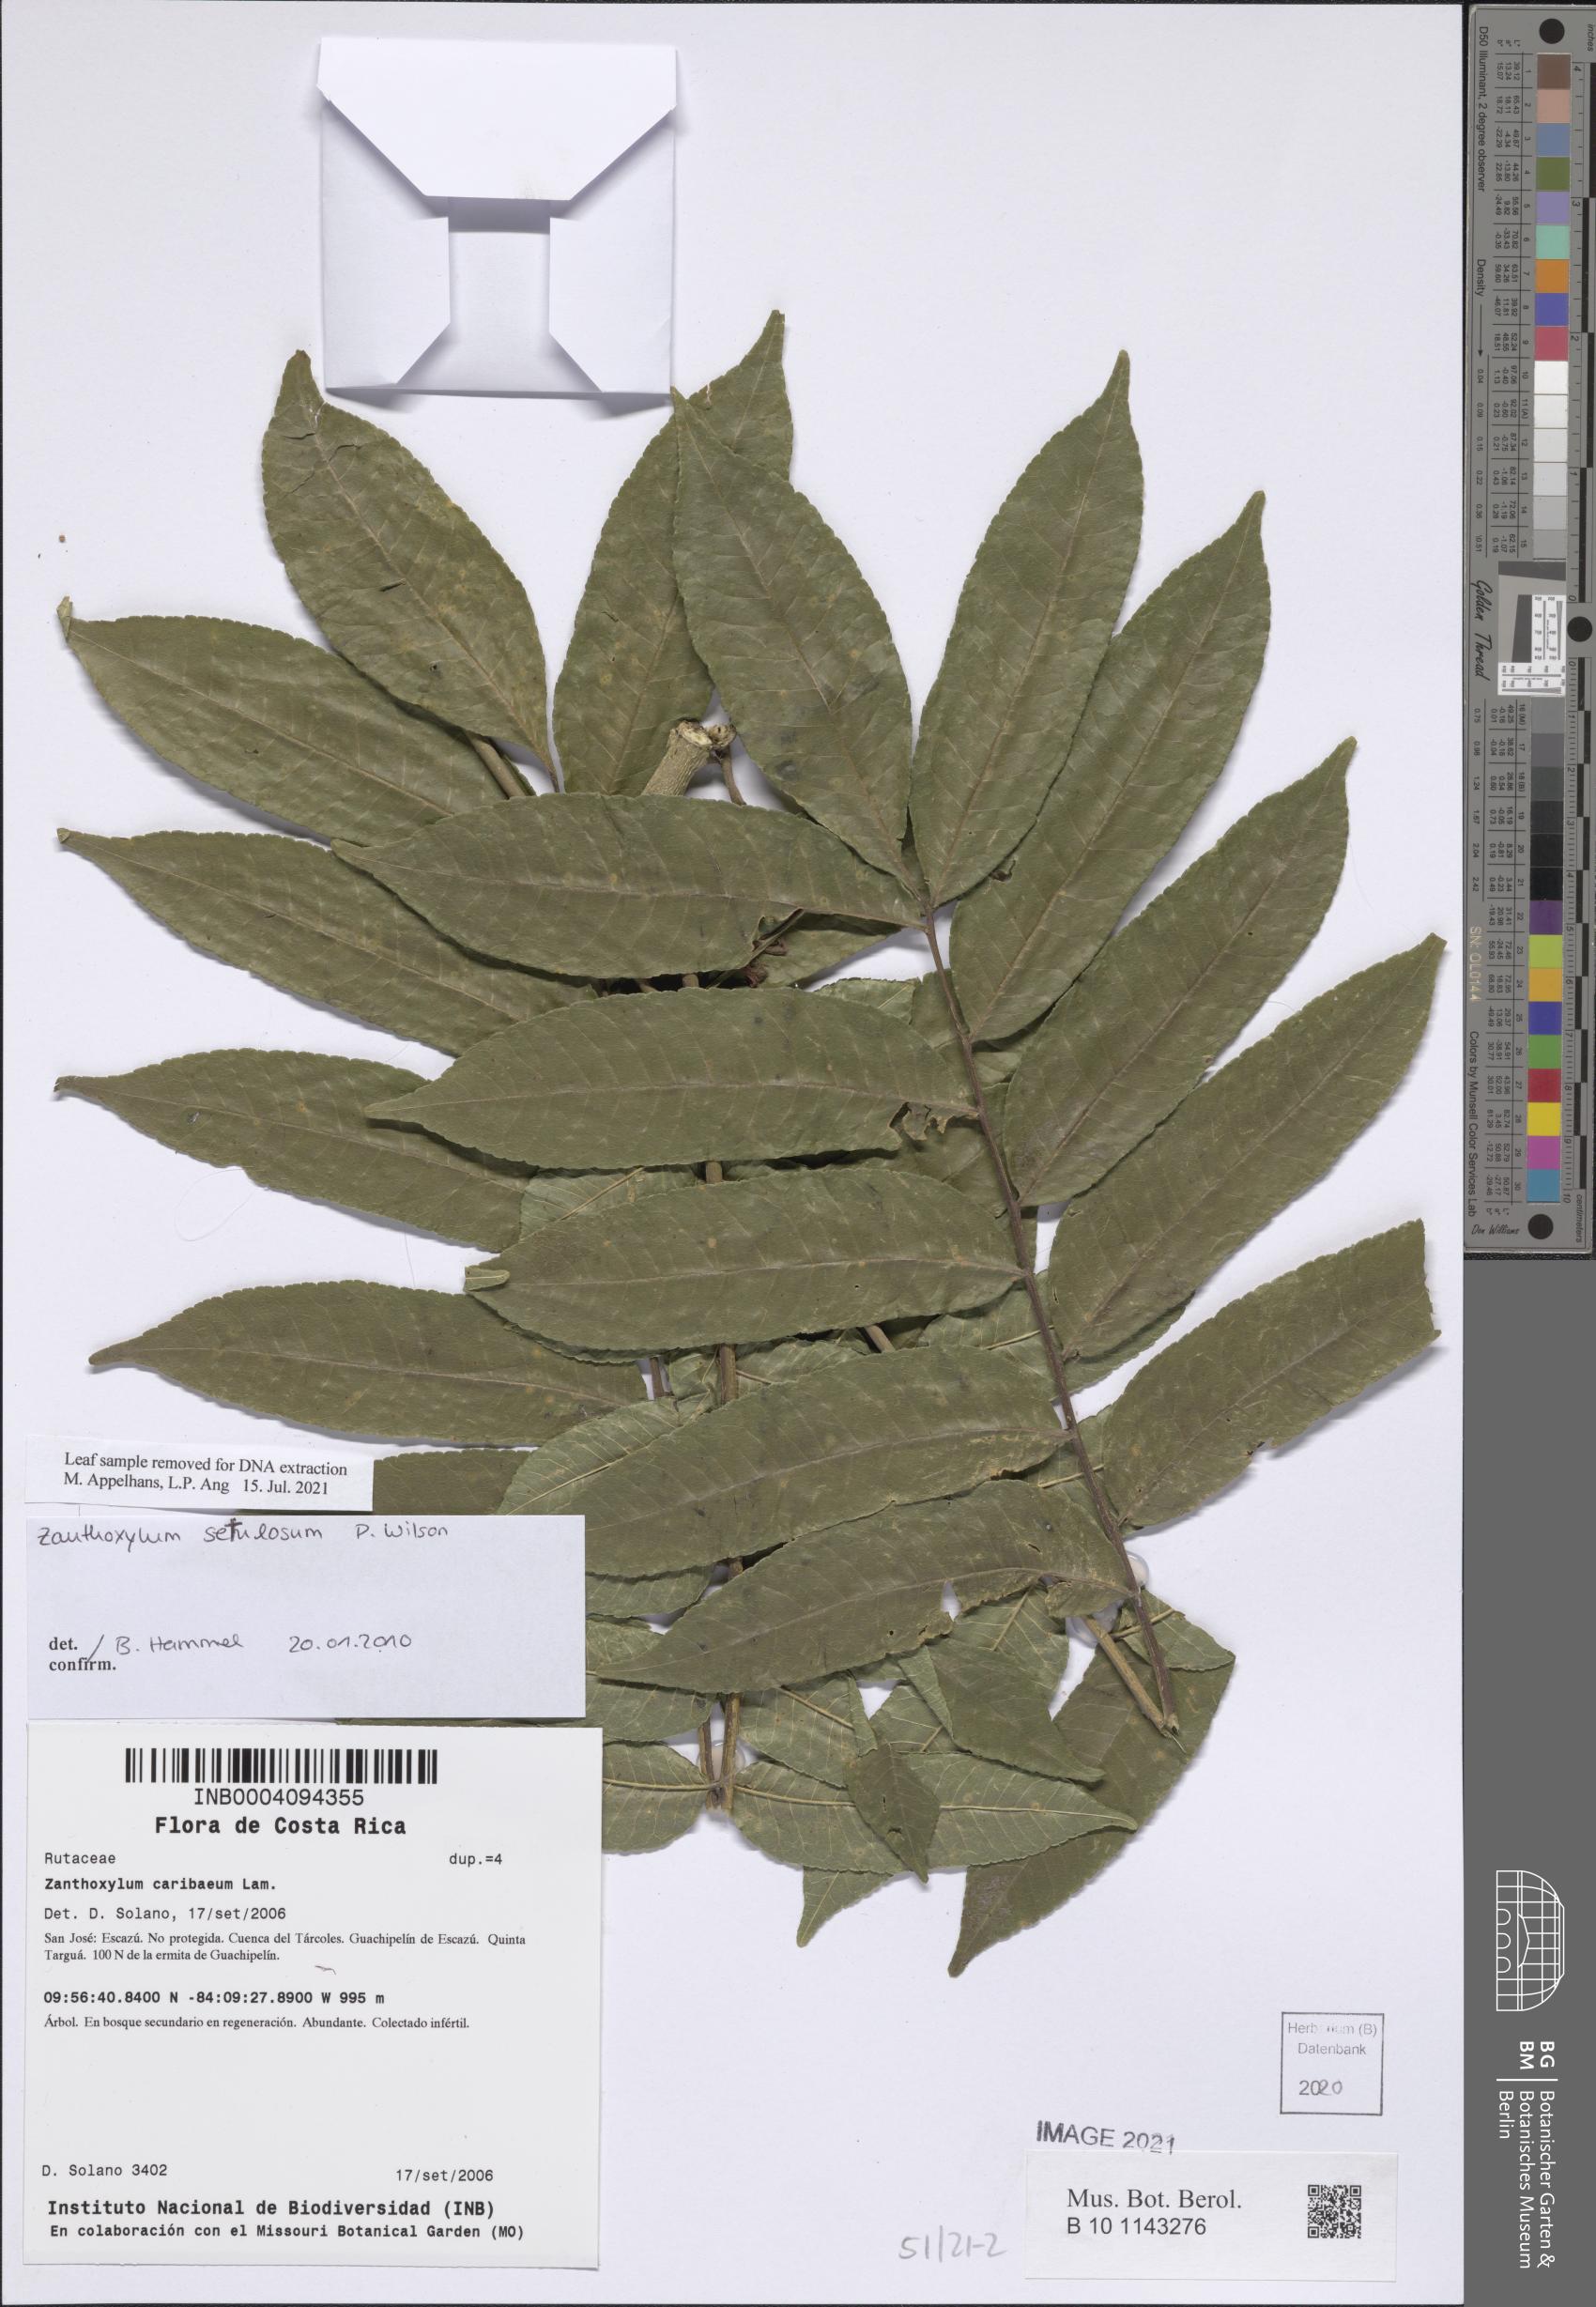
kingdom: Plantae
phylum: Tracheophyta
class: Magnoliopsida
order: Sapindales
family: Rutaceae
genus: Zanthoxylum
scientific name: Zanthoxylum setulosum
